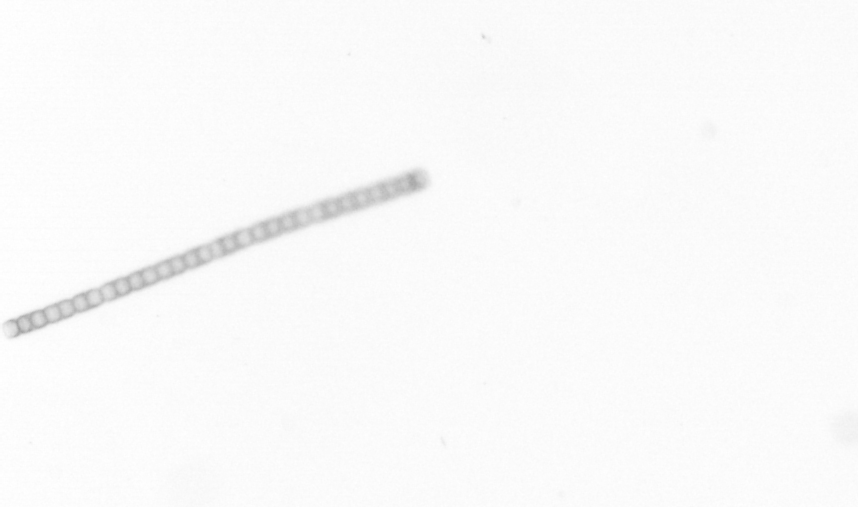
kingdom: Chromista
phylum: Ochrophyta
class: Bacillariophyceae
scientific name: Bacillariophyceae
